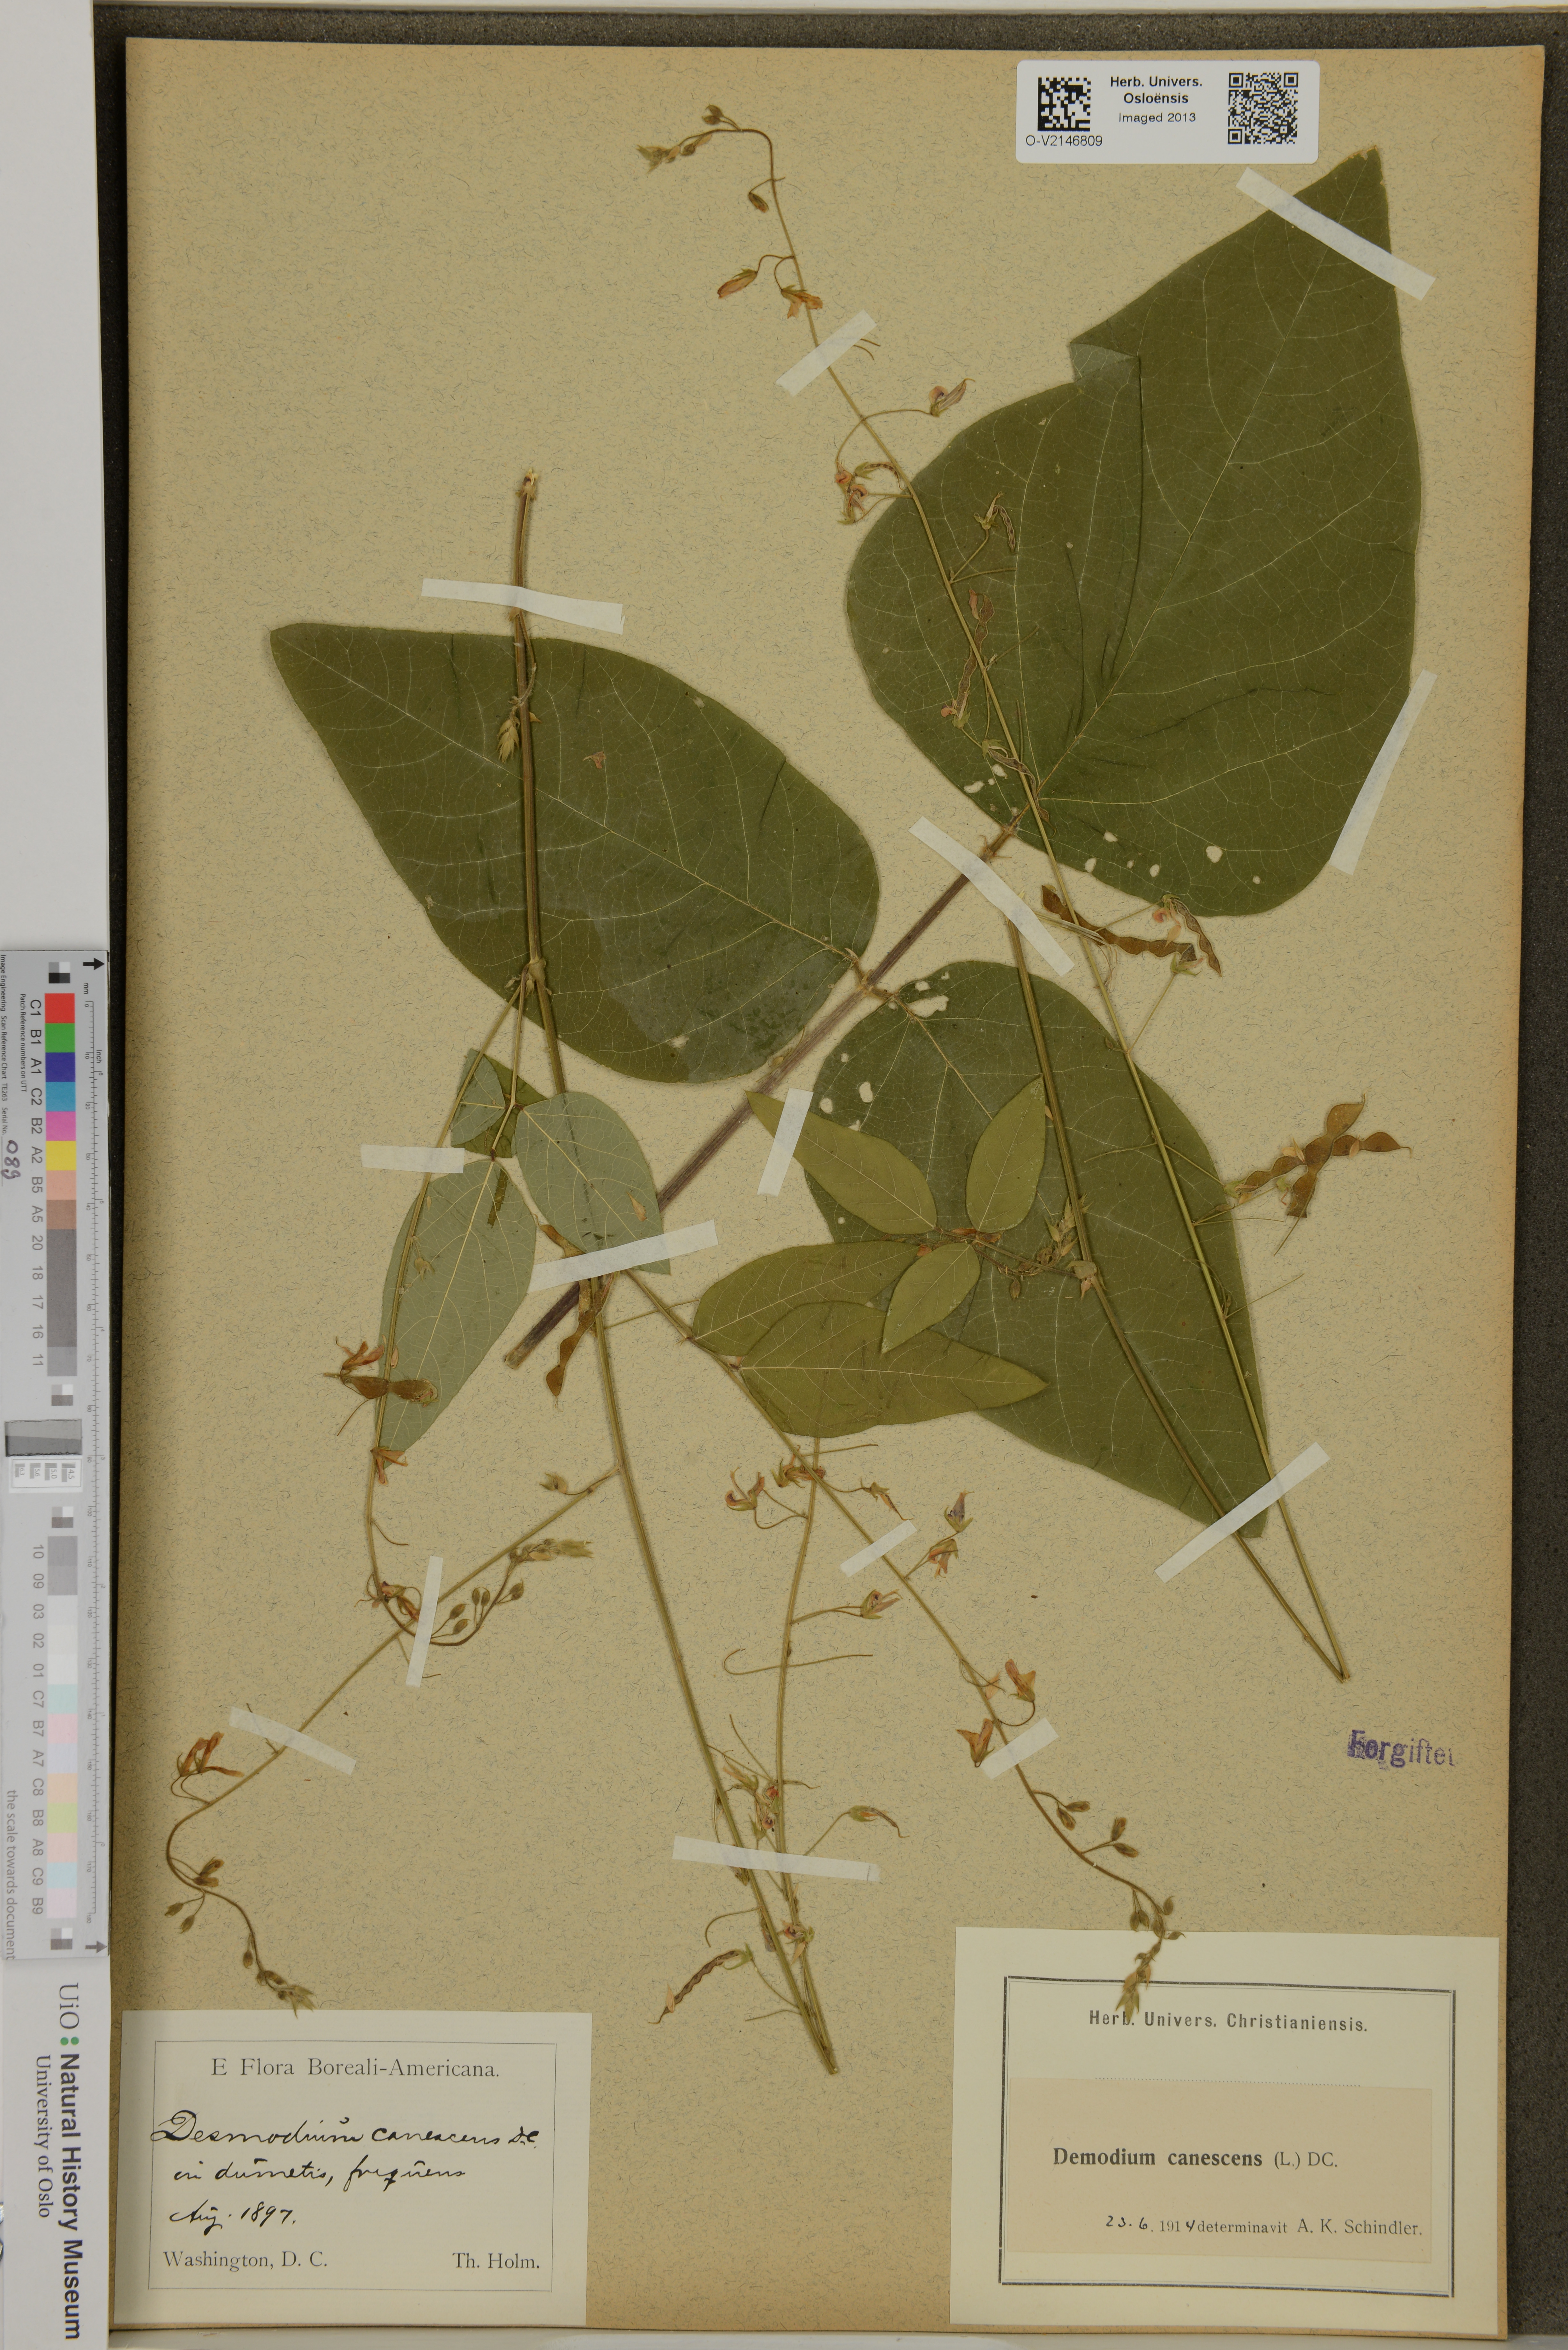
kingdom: Plantae
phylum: Tracheophyta
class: Magnoliopsida
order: Fabales
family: Fabaceae
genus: Desmodium
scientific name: Desmodium canescens
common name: Hoary tick-clover
